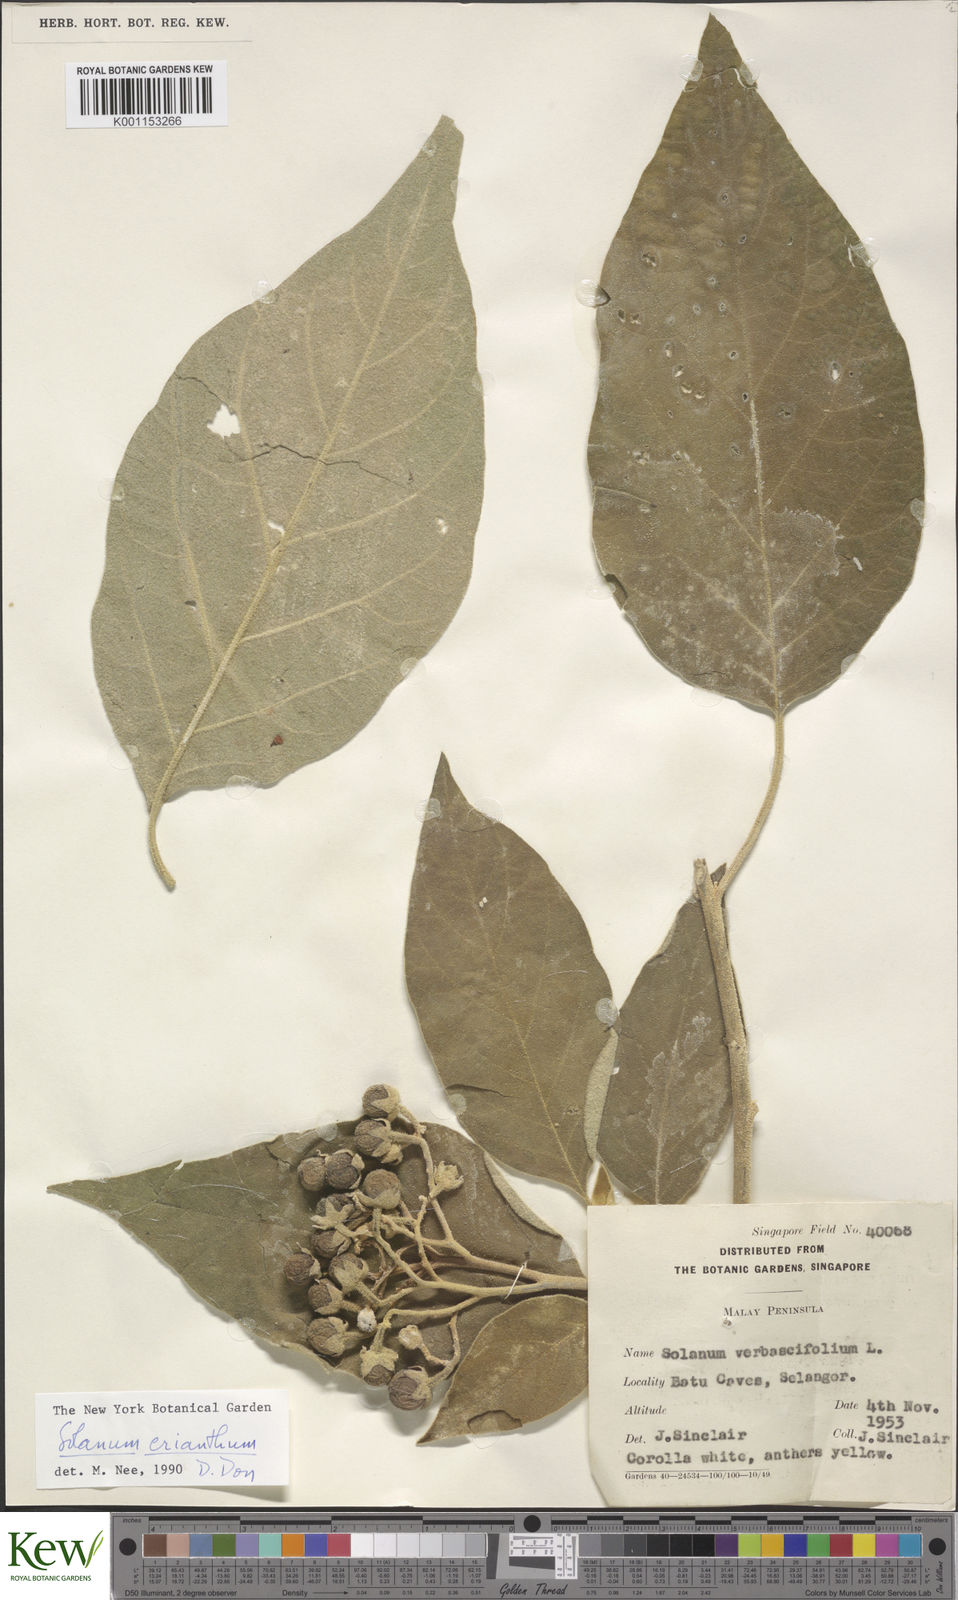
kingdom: Plantae
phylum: Tracheophyta
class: Magnoliopsida
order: Solanales
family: Solanaceae
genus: Solanum
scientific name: Solanum erianthum
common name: Tobacco-tree
